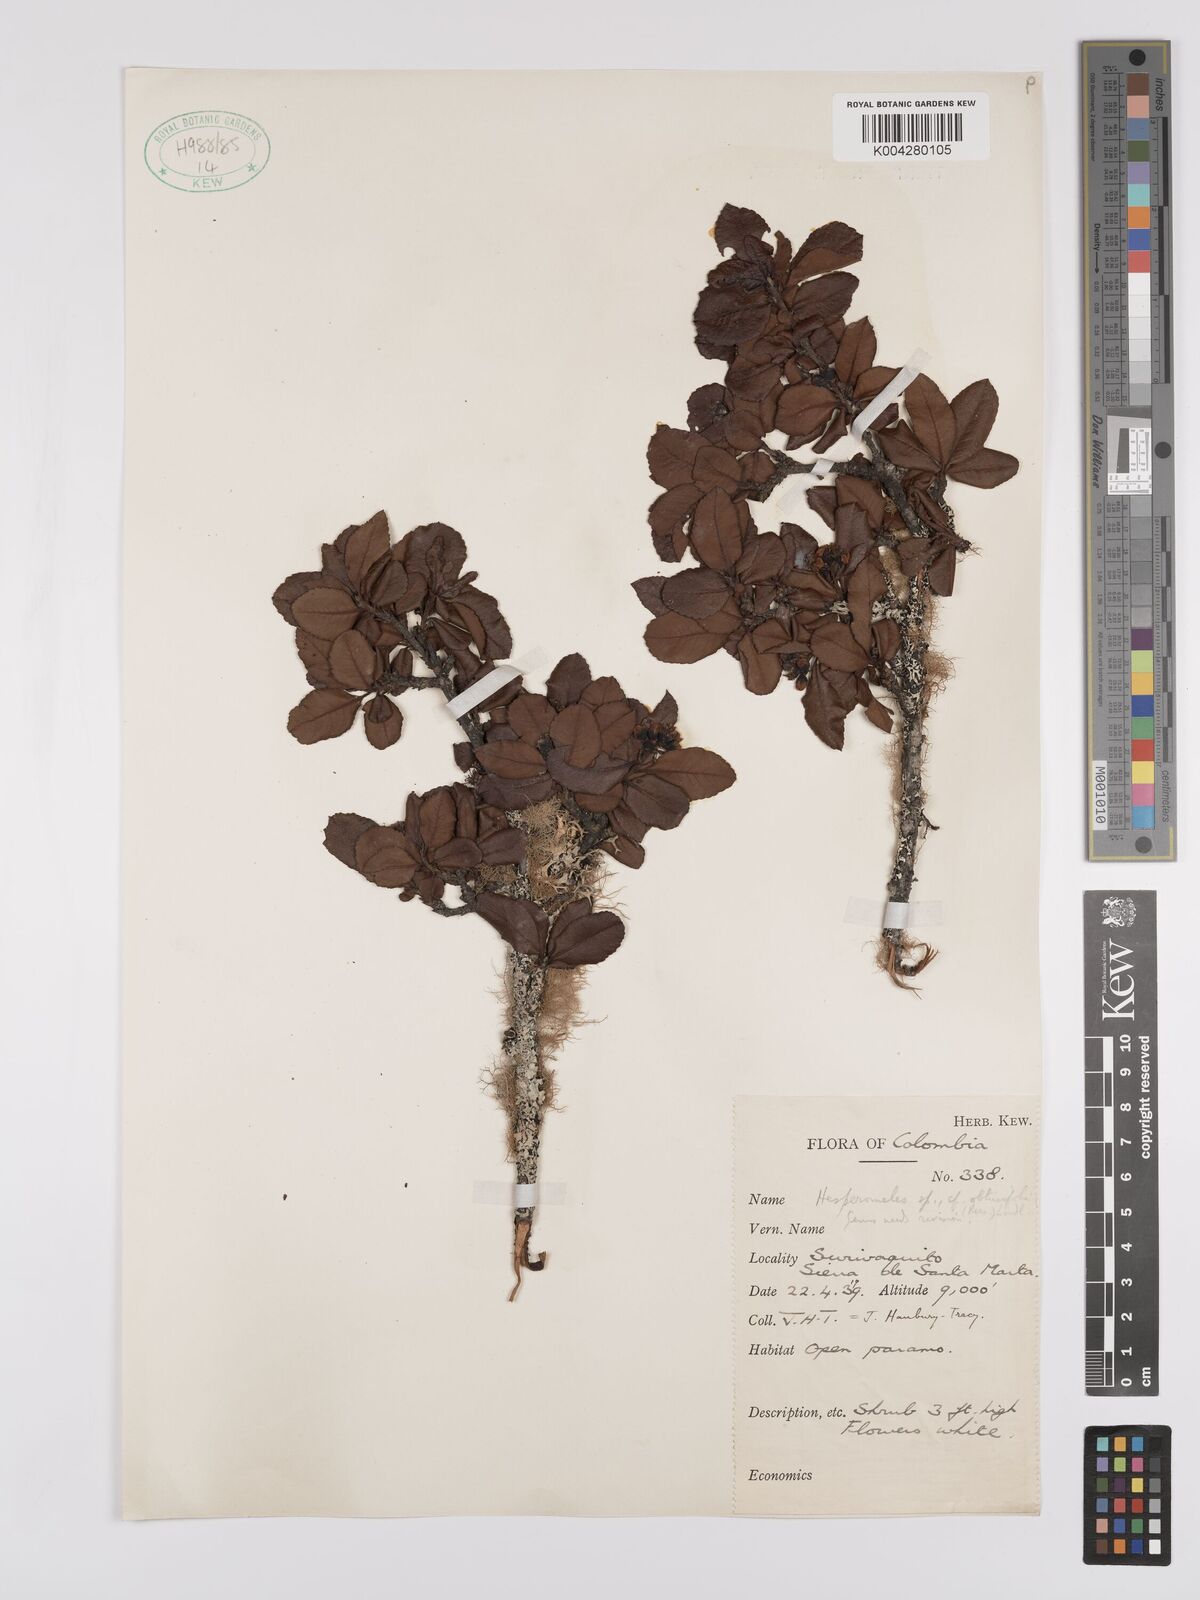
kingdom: Plantae
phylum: Tracheophyta
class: Magnoliopsida
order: Rosales
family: Rosaceae
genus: Hesperomeles
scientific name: Hesperomeles obtusifolia
